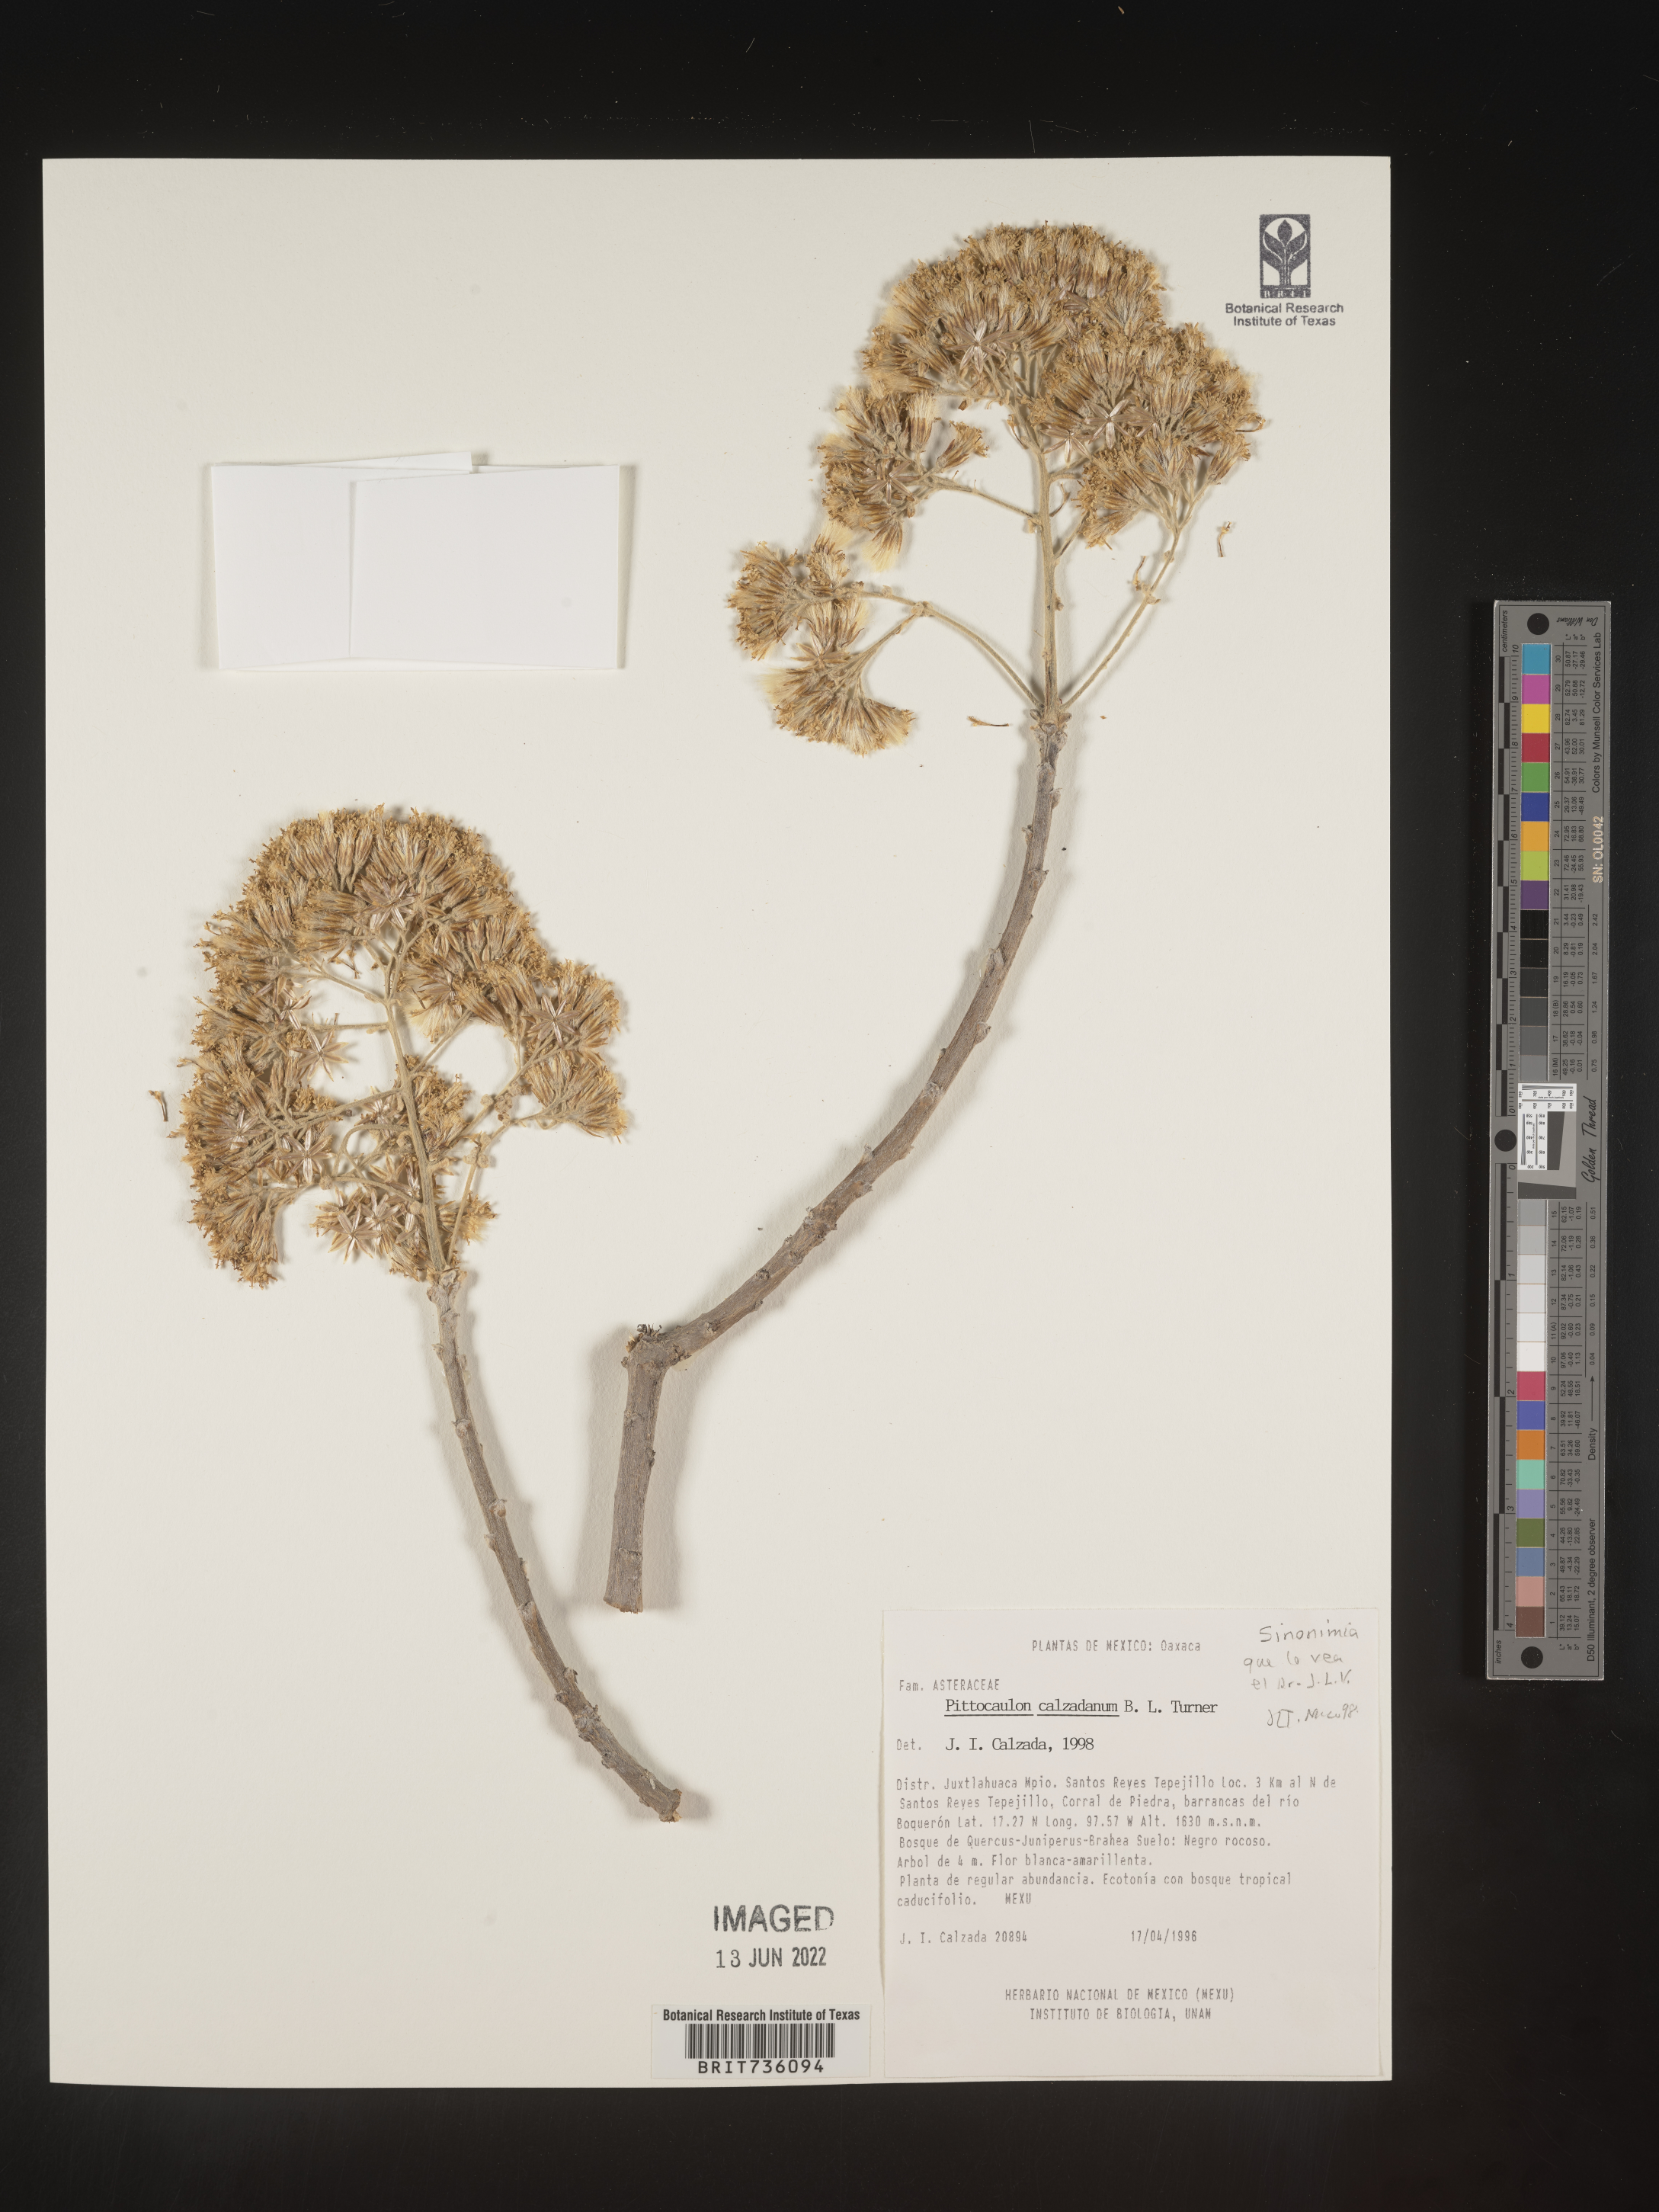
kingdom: Plantae
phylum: Tracheophyta
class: Magnoliopsida
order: Asterales
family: Asteraceae
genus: Pittocaulon
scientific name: Pittocaulon
